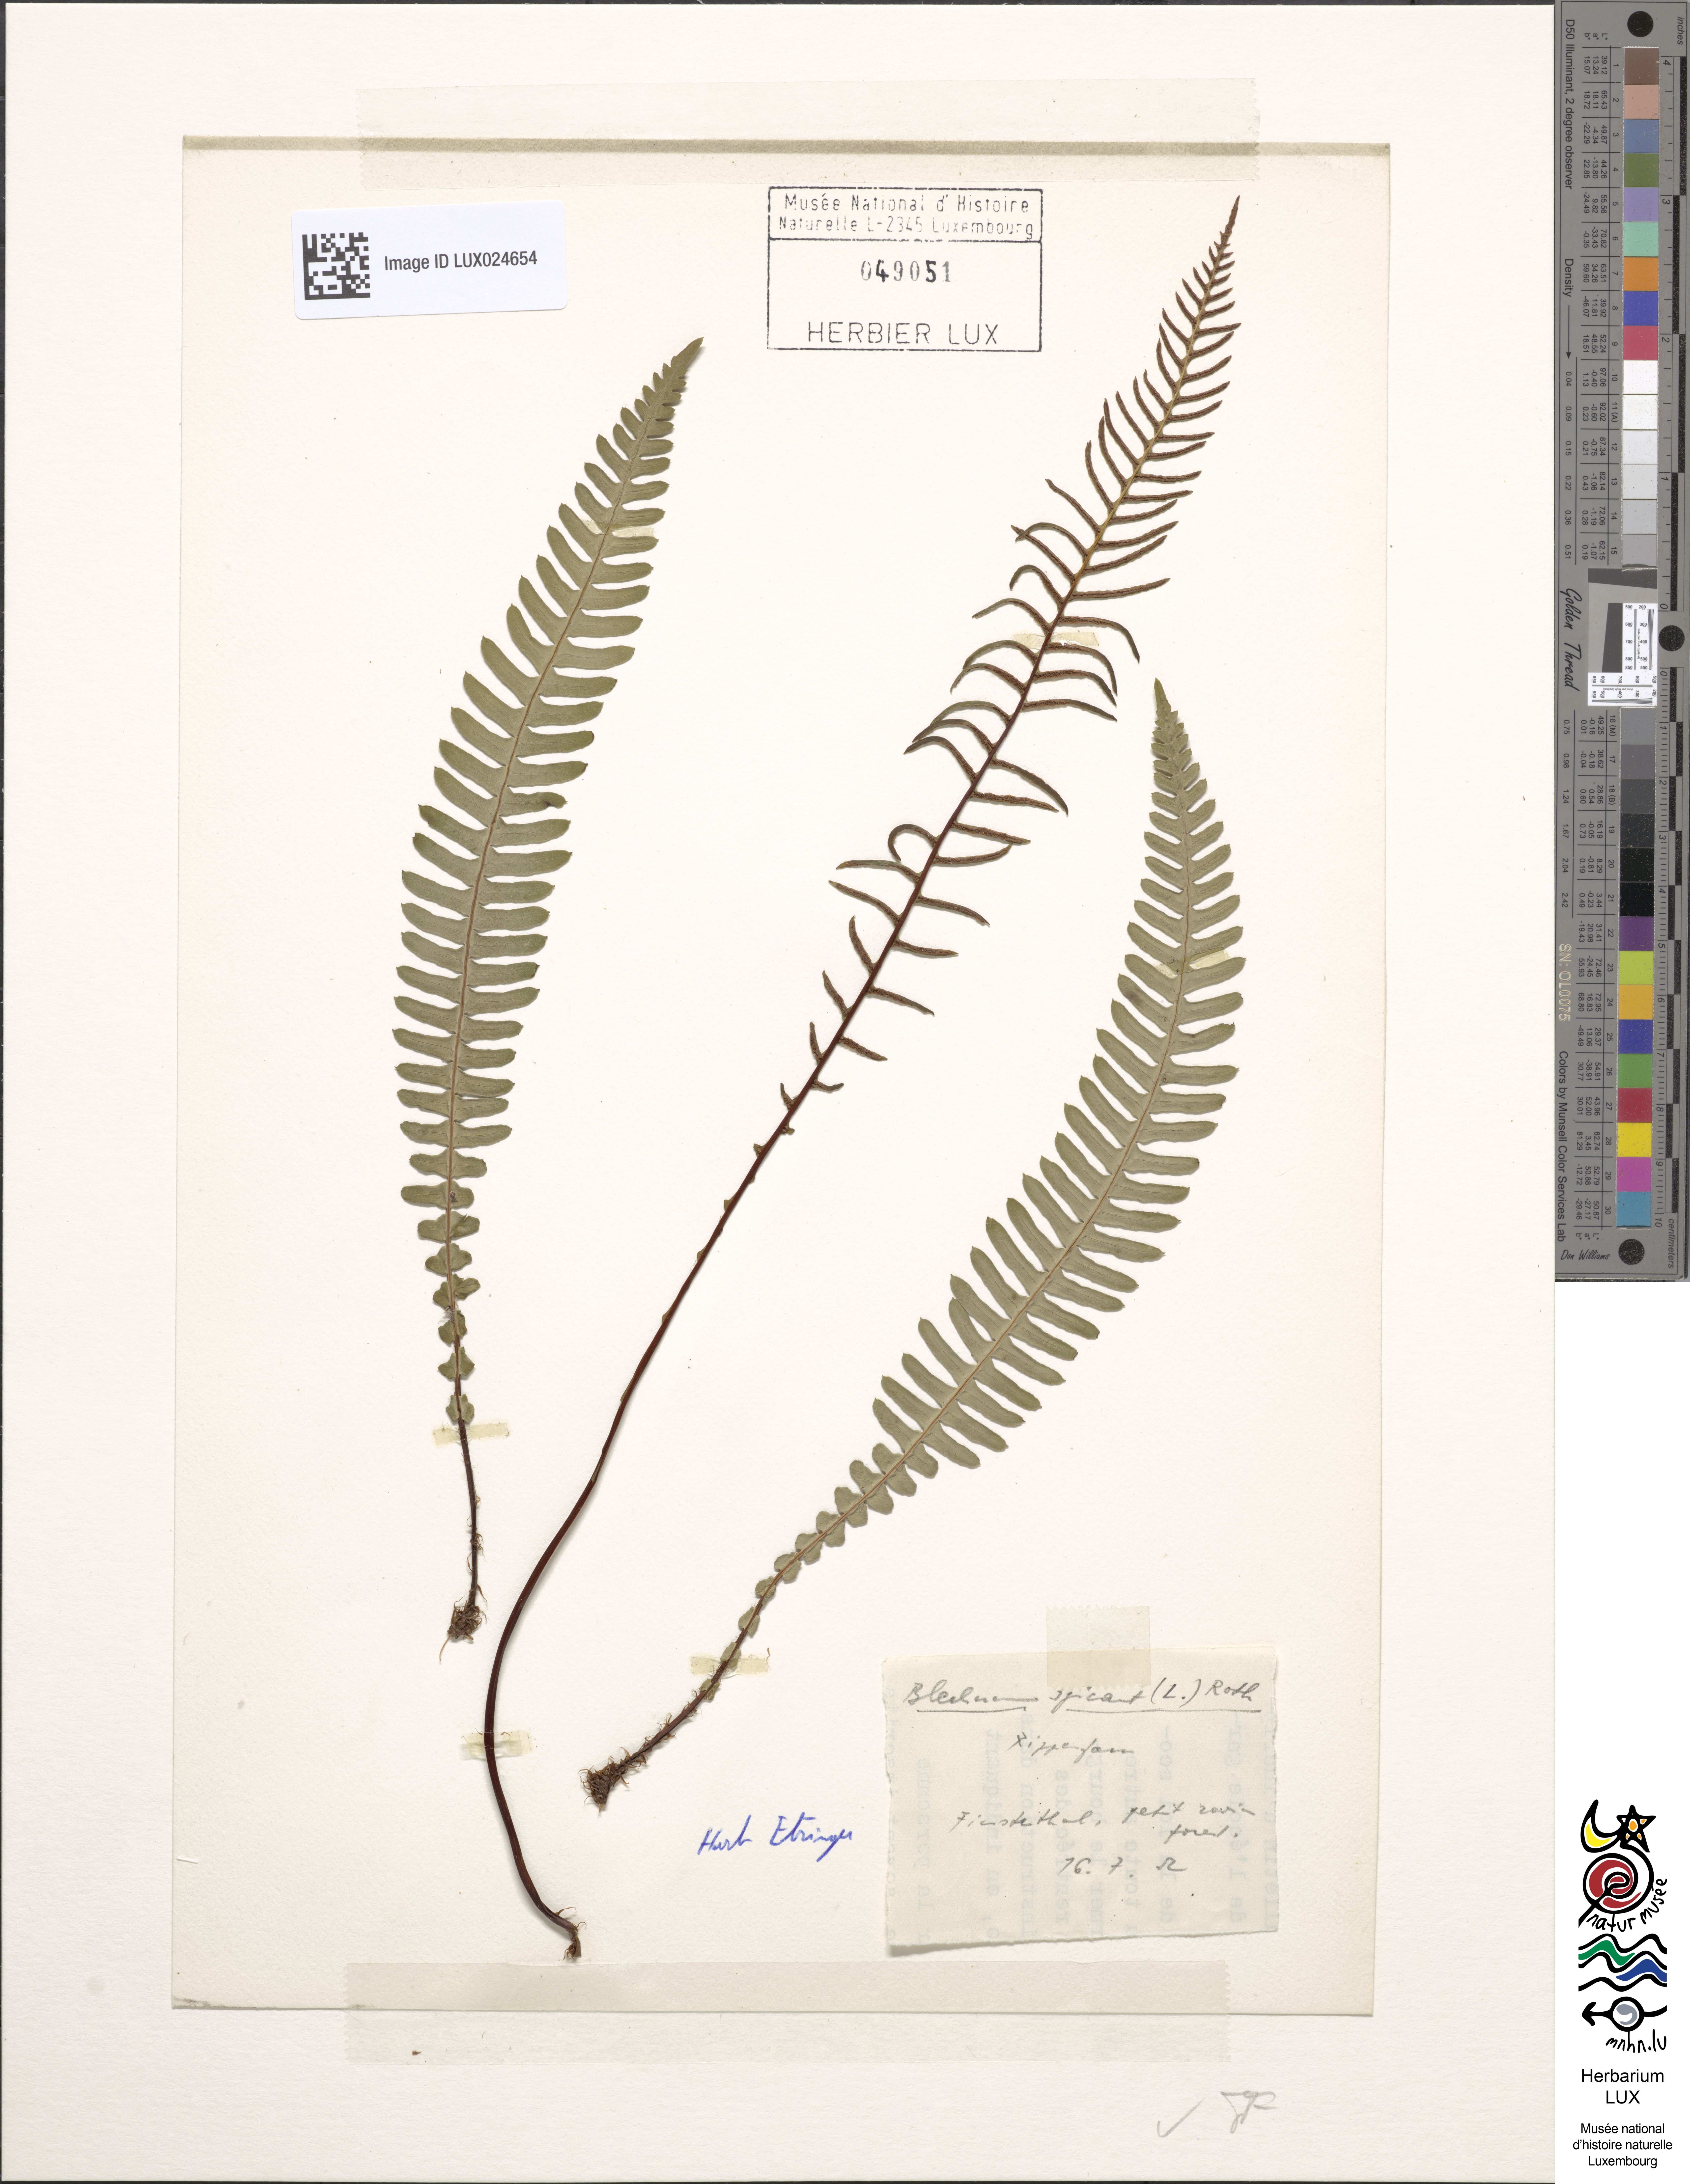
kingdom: Plantae
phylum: Tracheophyta
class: Polypodiopsida
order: Polypodiales
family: Blechnaceae
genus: Struthiopteris
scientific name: Struthiopteris spicant
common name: Deer fern
